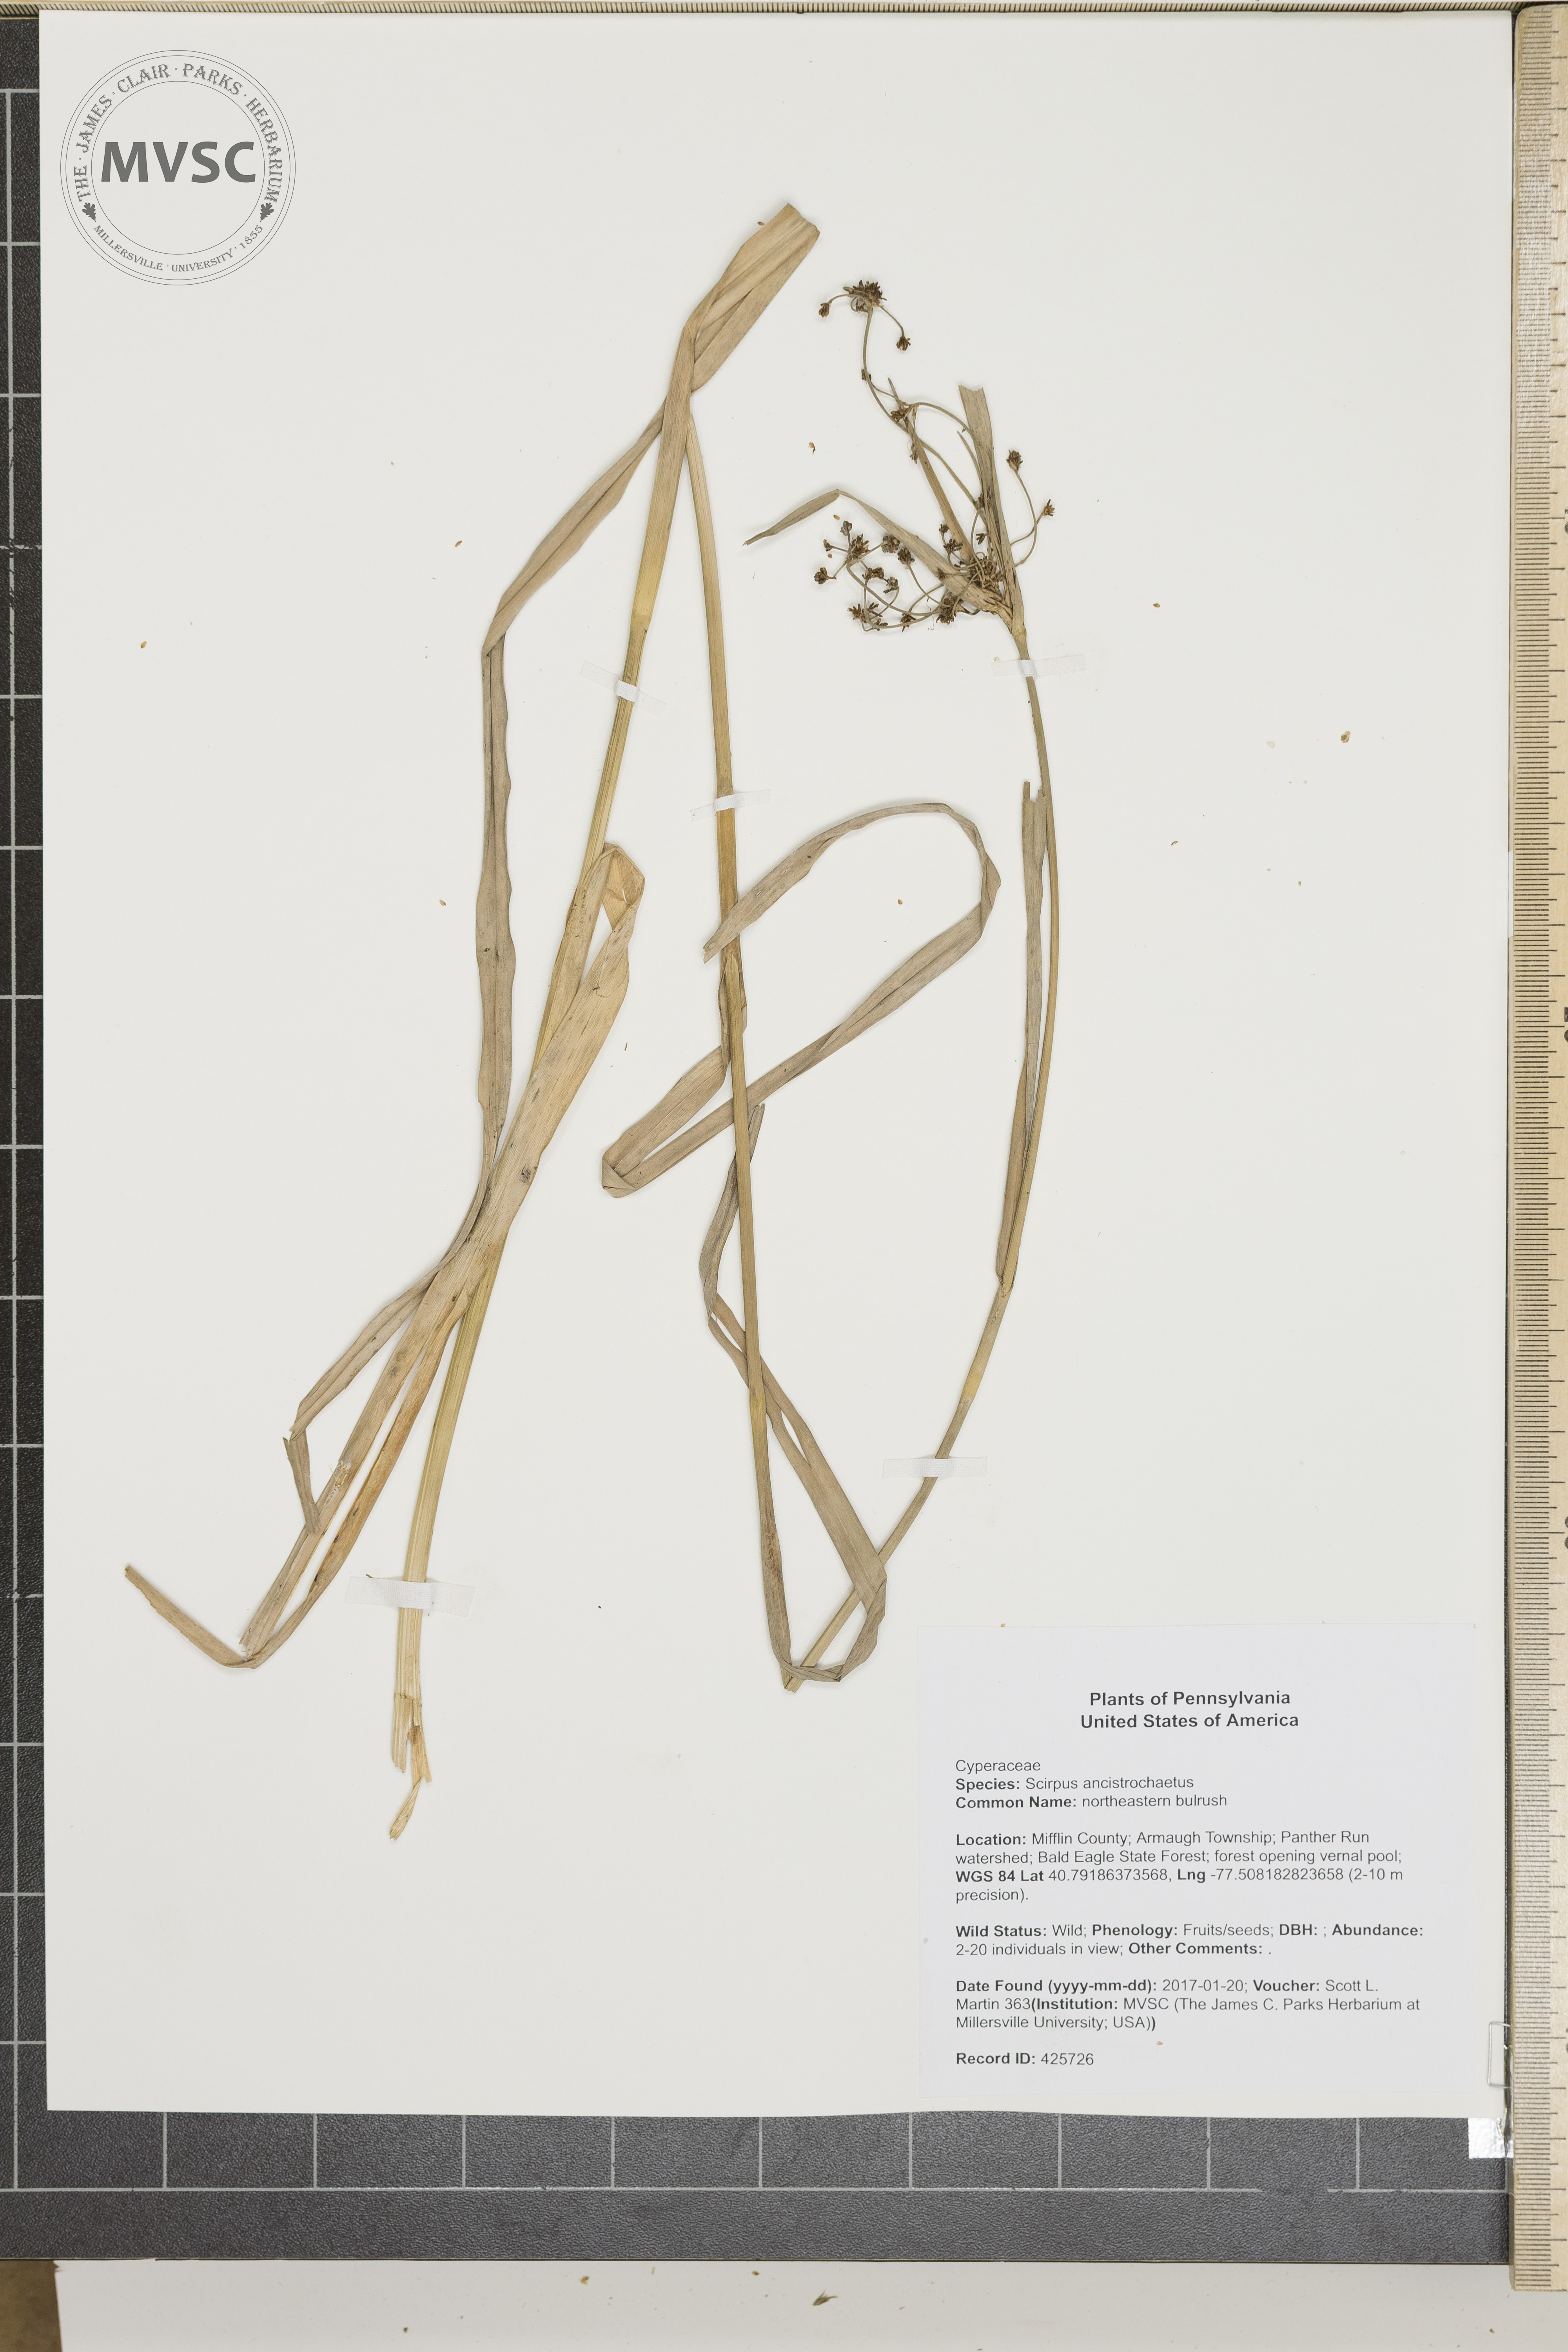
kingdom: Plantae
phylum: Tracheophyta
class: Liliopsida
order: Poales
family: Cyperaceae
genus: Scirpus
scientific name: Scirpus ancistrochaetus
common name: northeastern bulrush
